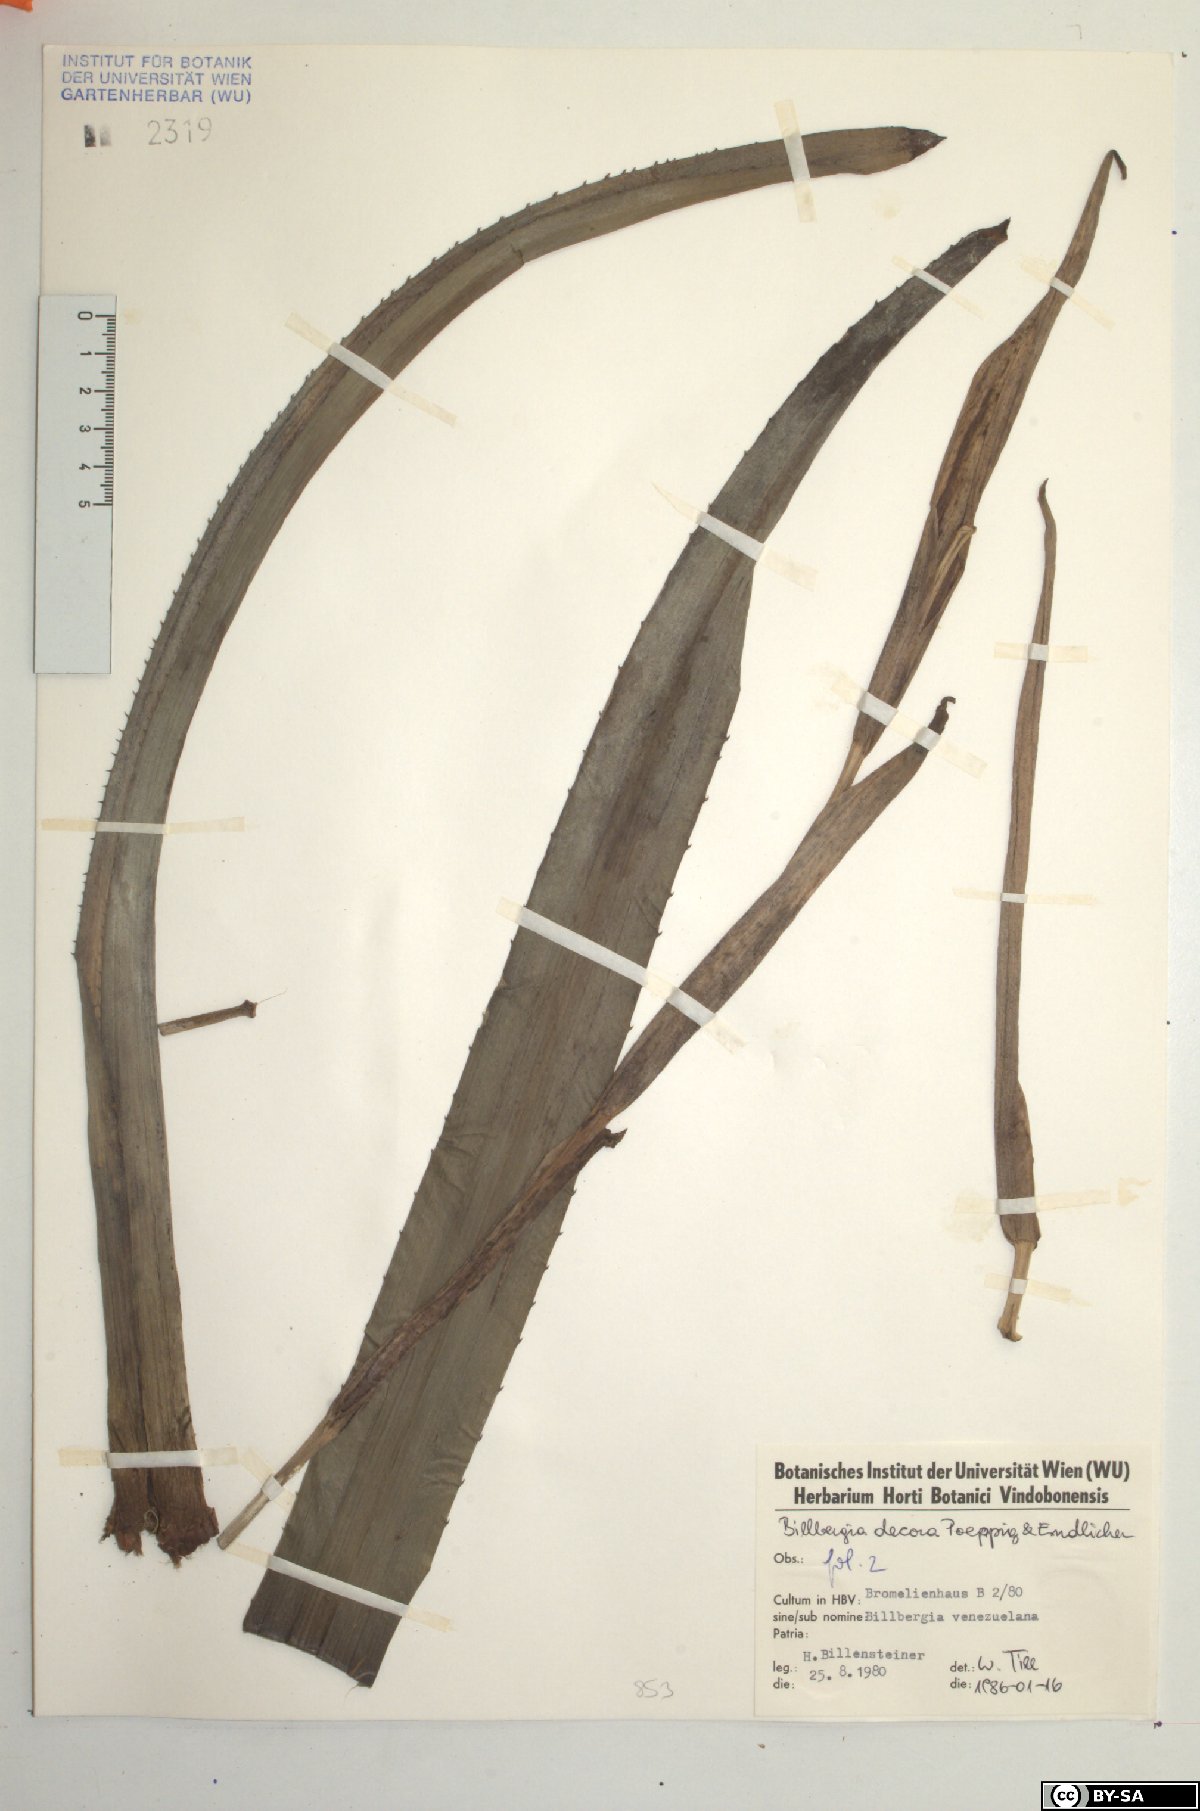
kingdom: Plantae
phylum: Tracheophyta
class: Liliopsida
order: Poales
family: Bromeliaceae
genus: Billbergia
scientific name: Billbergia decora
